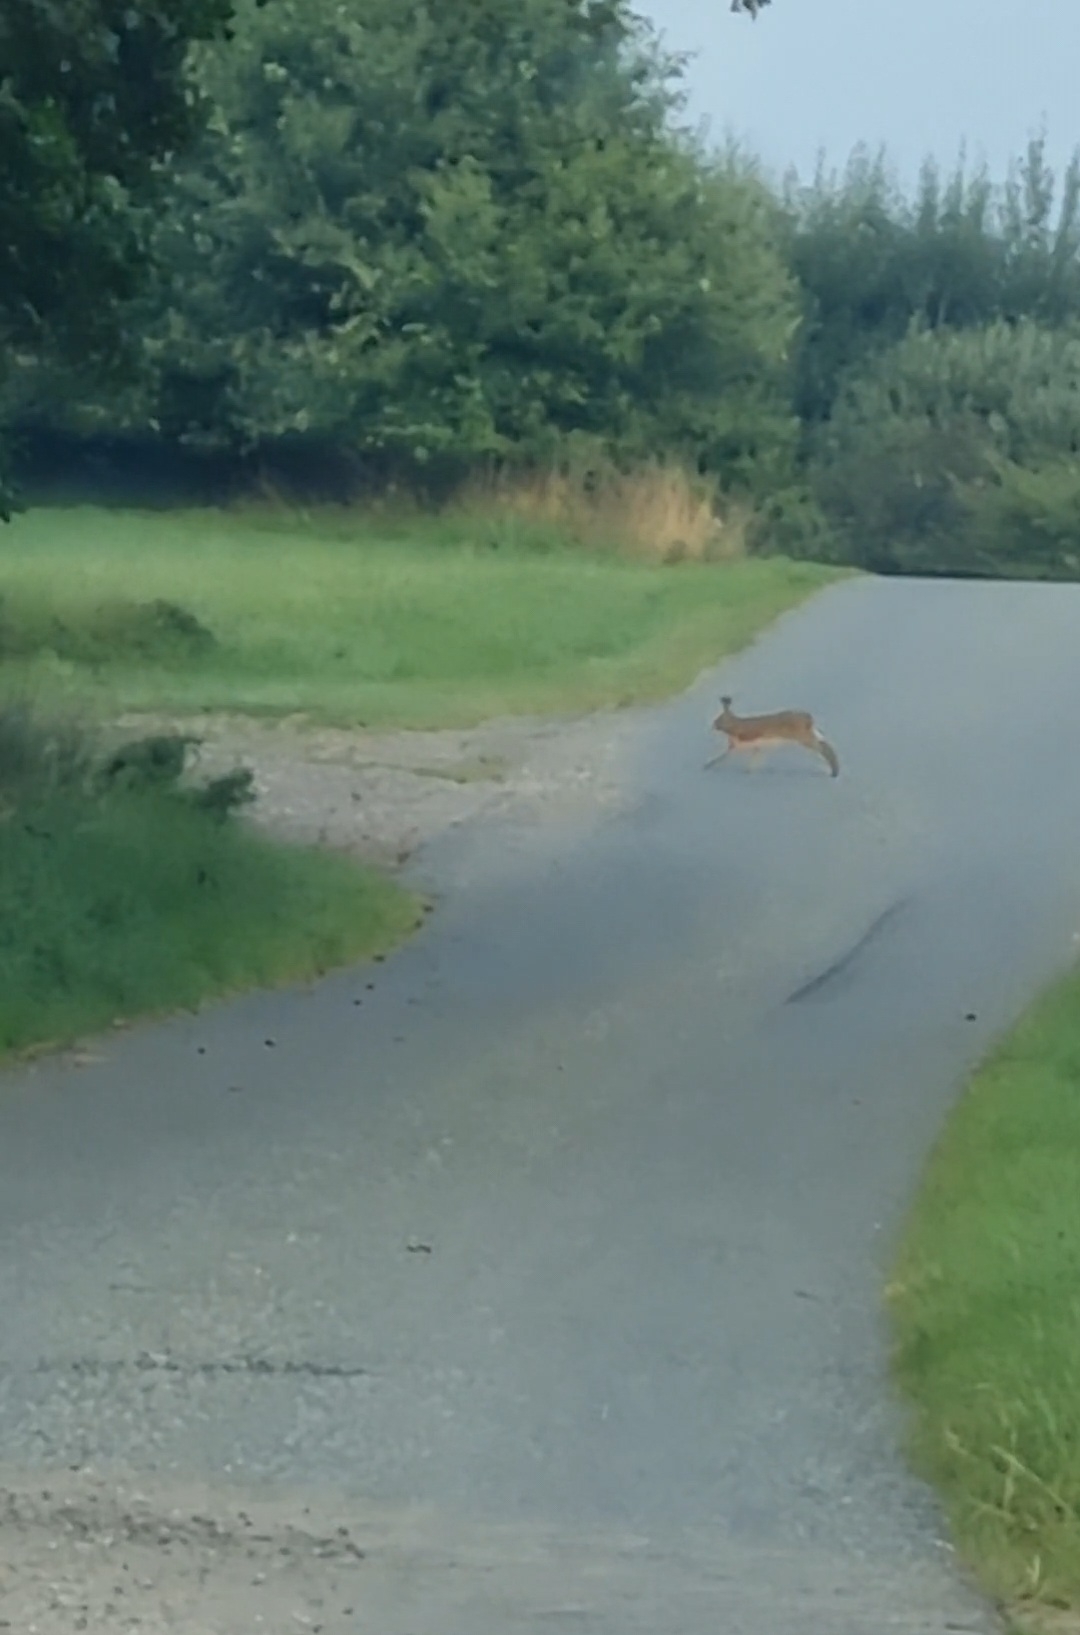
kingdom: Animalia
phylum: Chordata
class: Mammalia
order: Lagomorpha
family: Leporidae
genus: Lepus
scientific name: Lepus europaeus
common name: Hare
